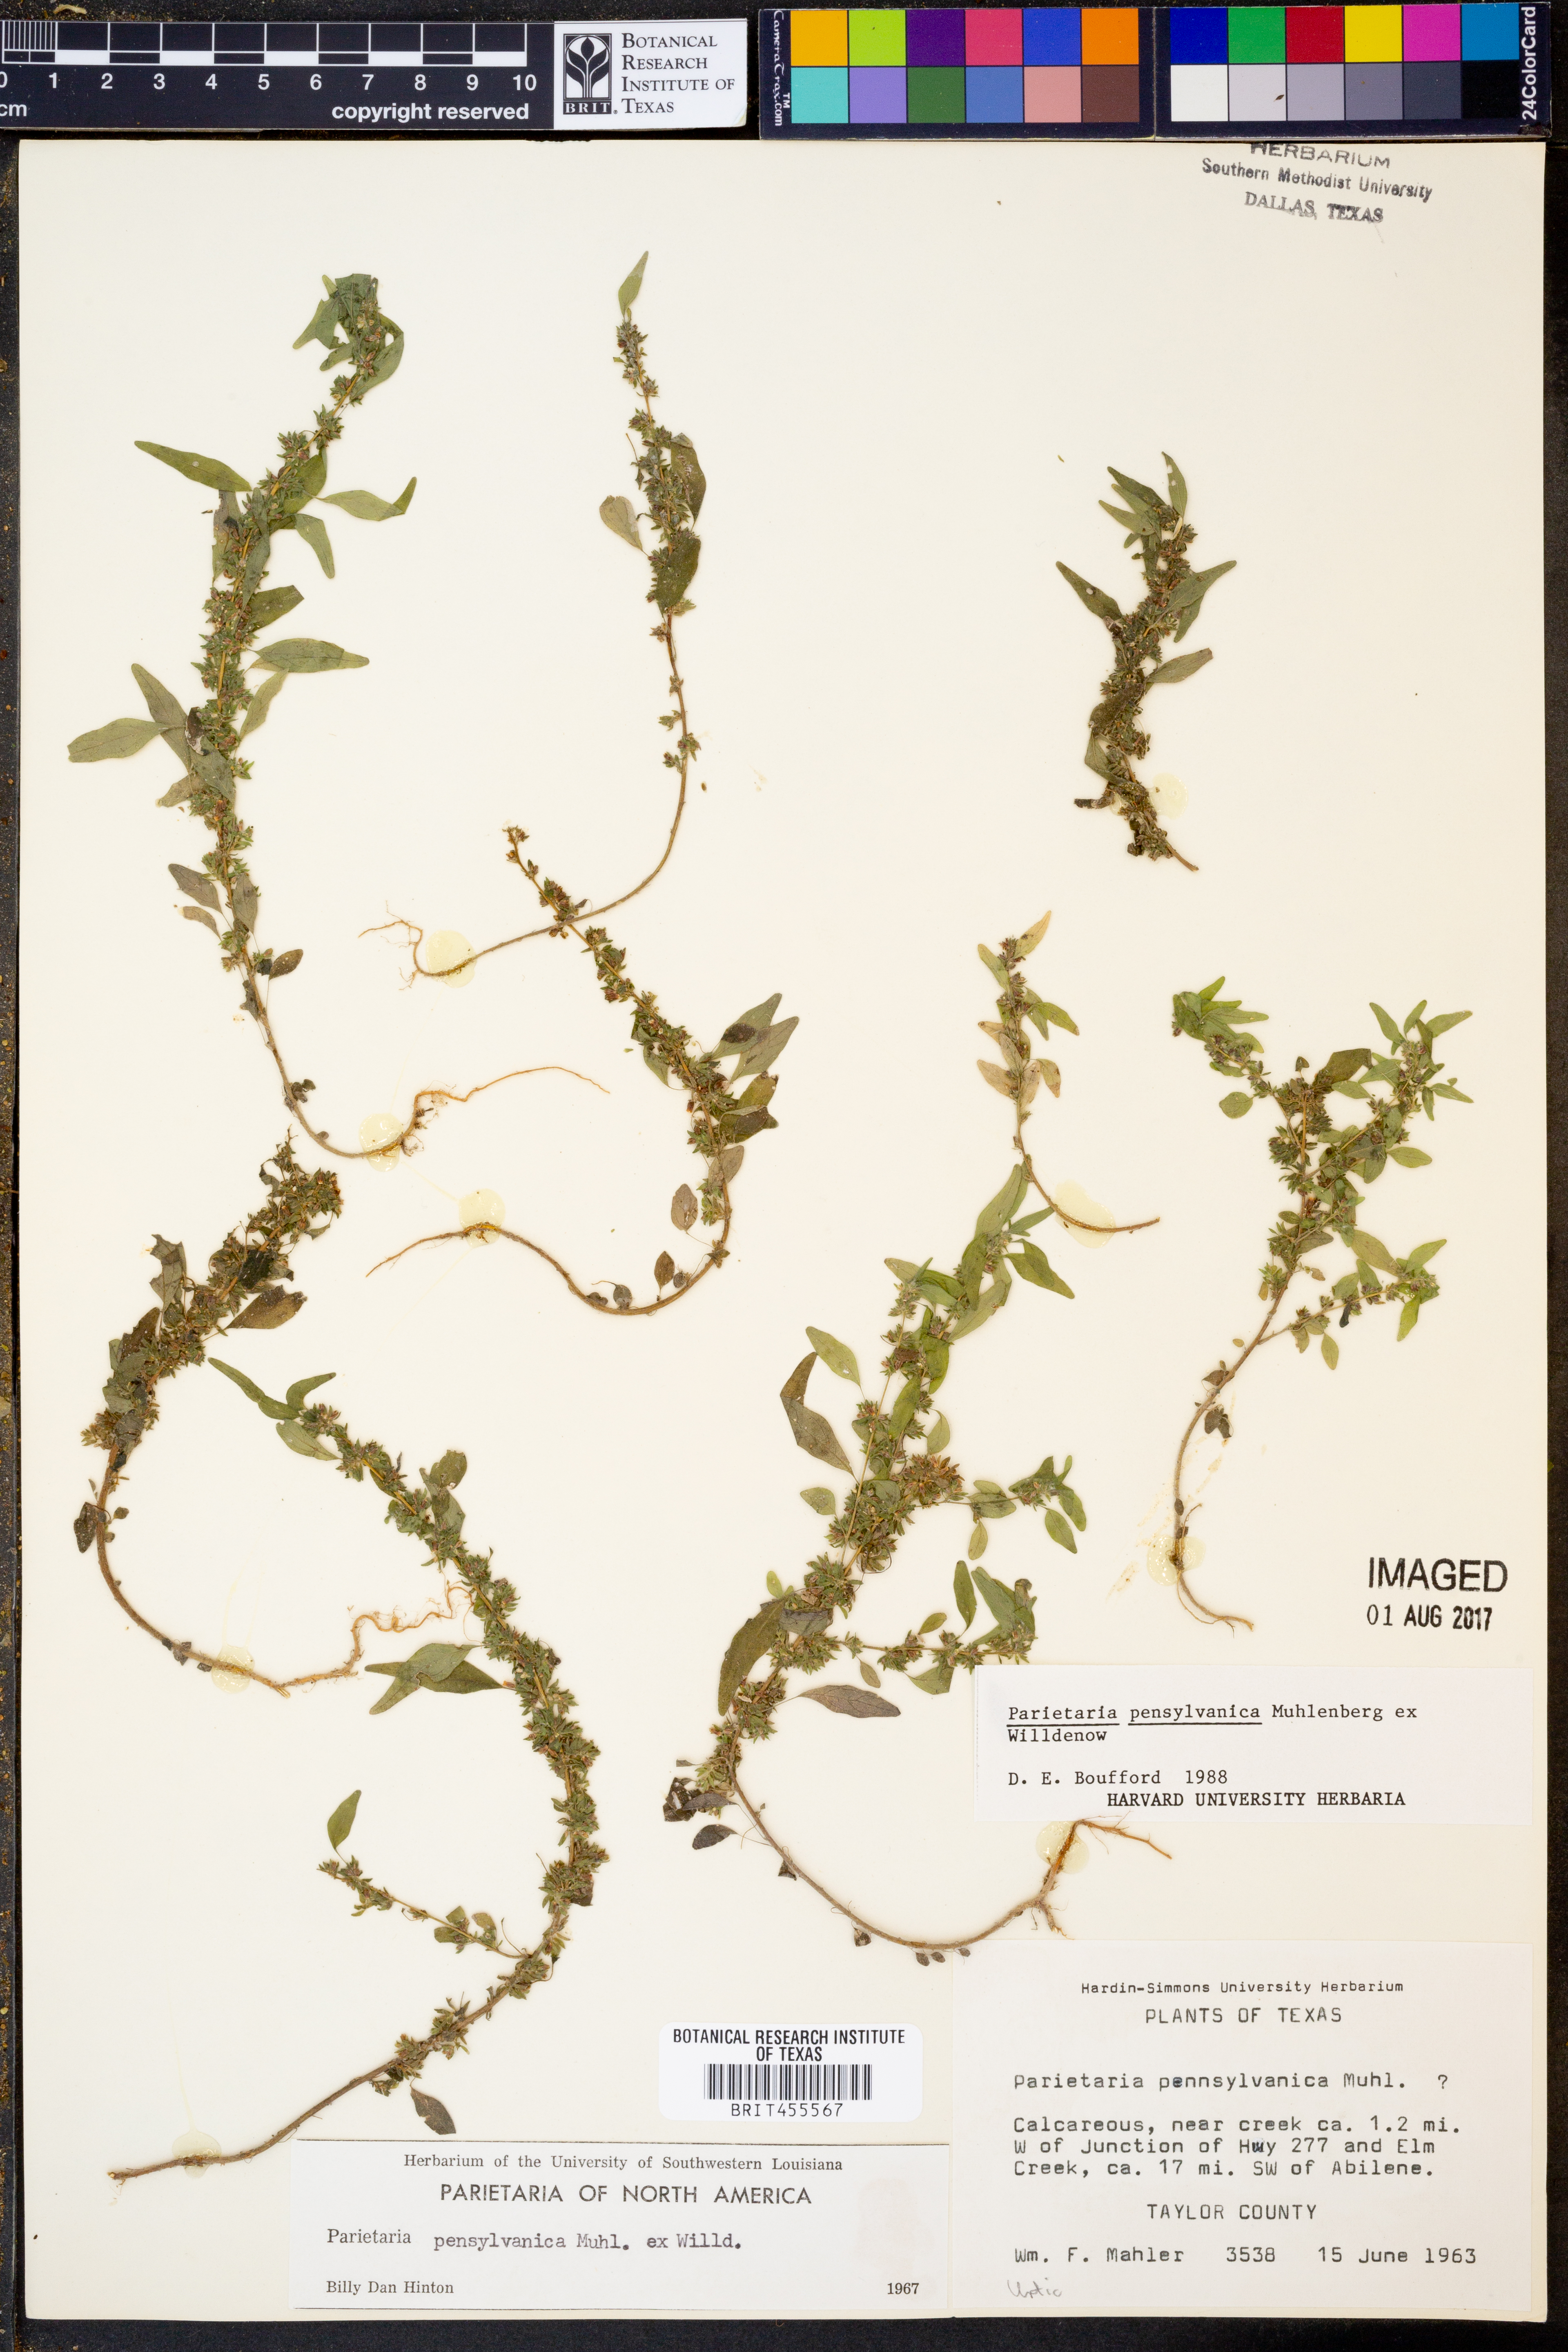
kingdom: Plantae
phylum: Tracheophyta
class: Magnoliopsida
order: Rosales
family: Urticaceae
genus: Parietaria
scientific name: Parietaria pensylvanica
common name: Pennsylvania pellitory
